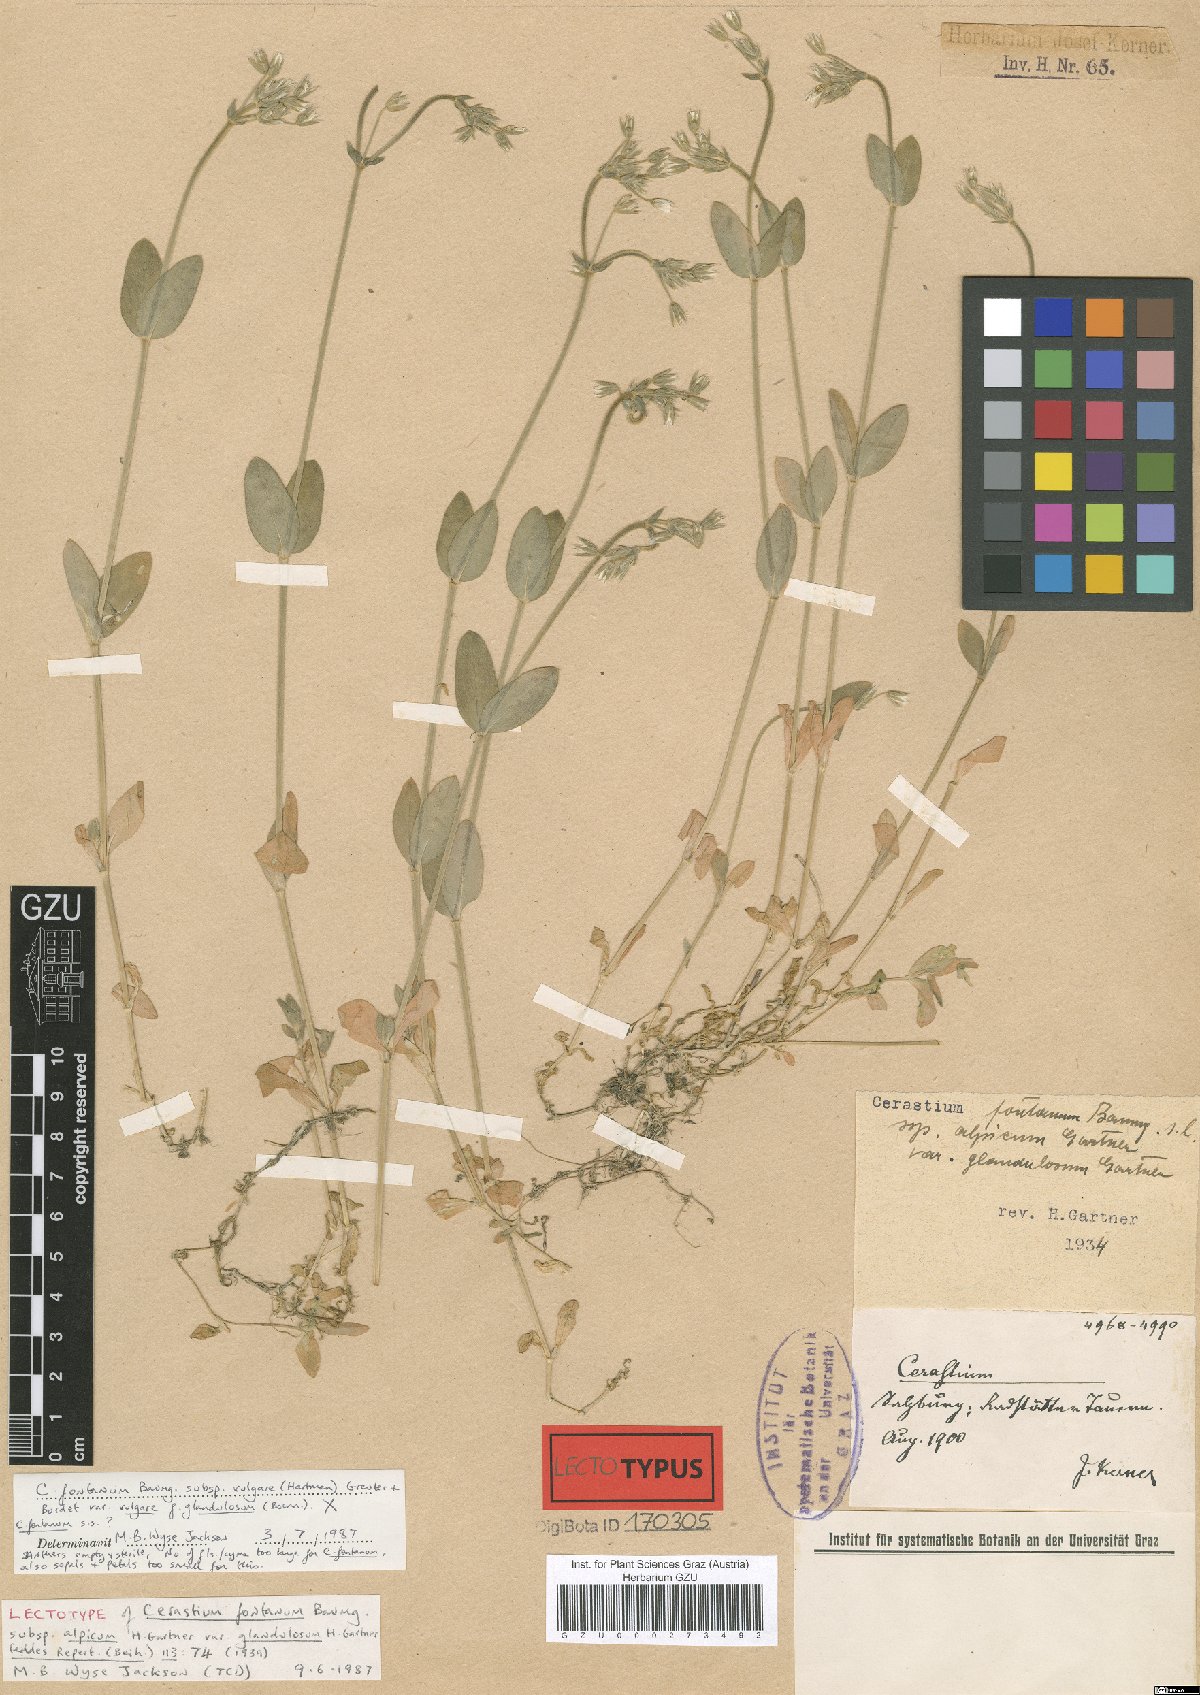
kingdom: Plantae
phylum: Tracheophyta
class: Magnoliopsida
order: Caryophyllales
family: Caryophyllaceae
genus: Cerastium
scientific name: Cerastium holosteoides
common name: Big chickweed
